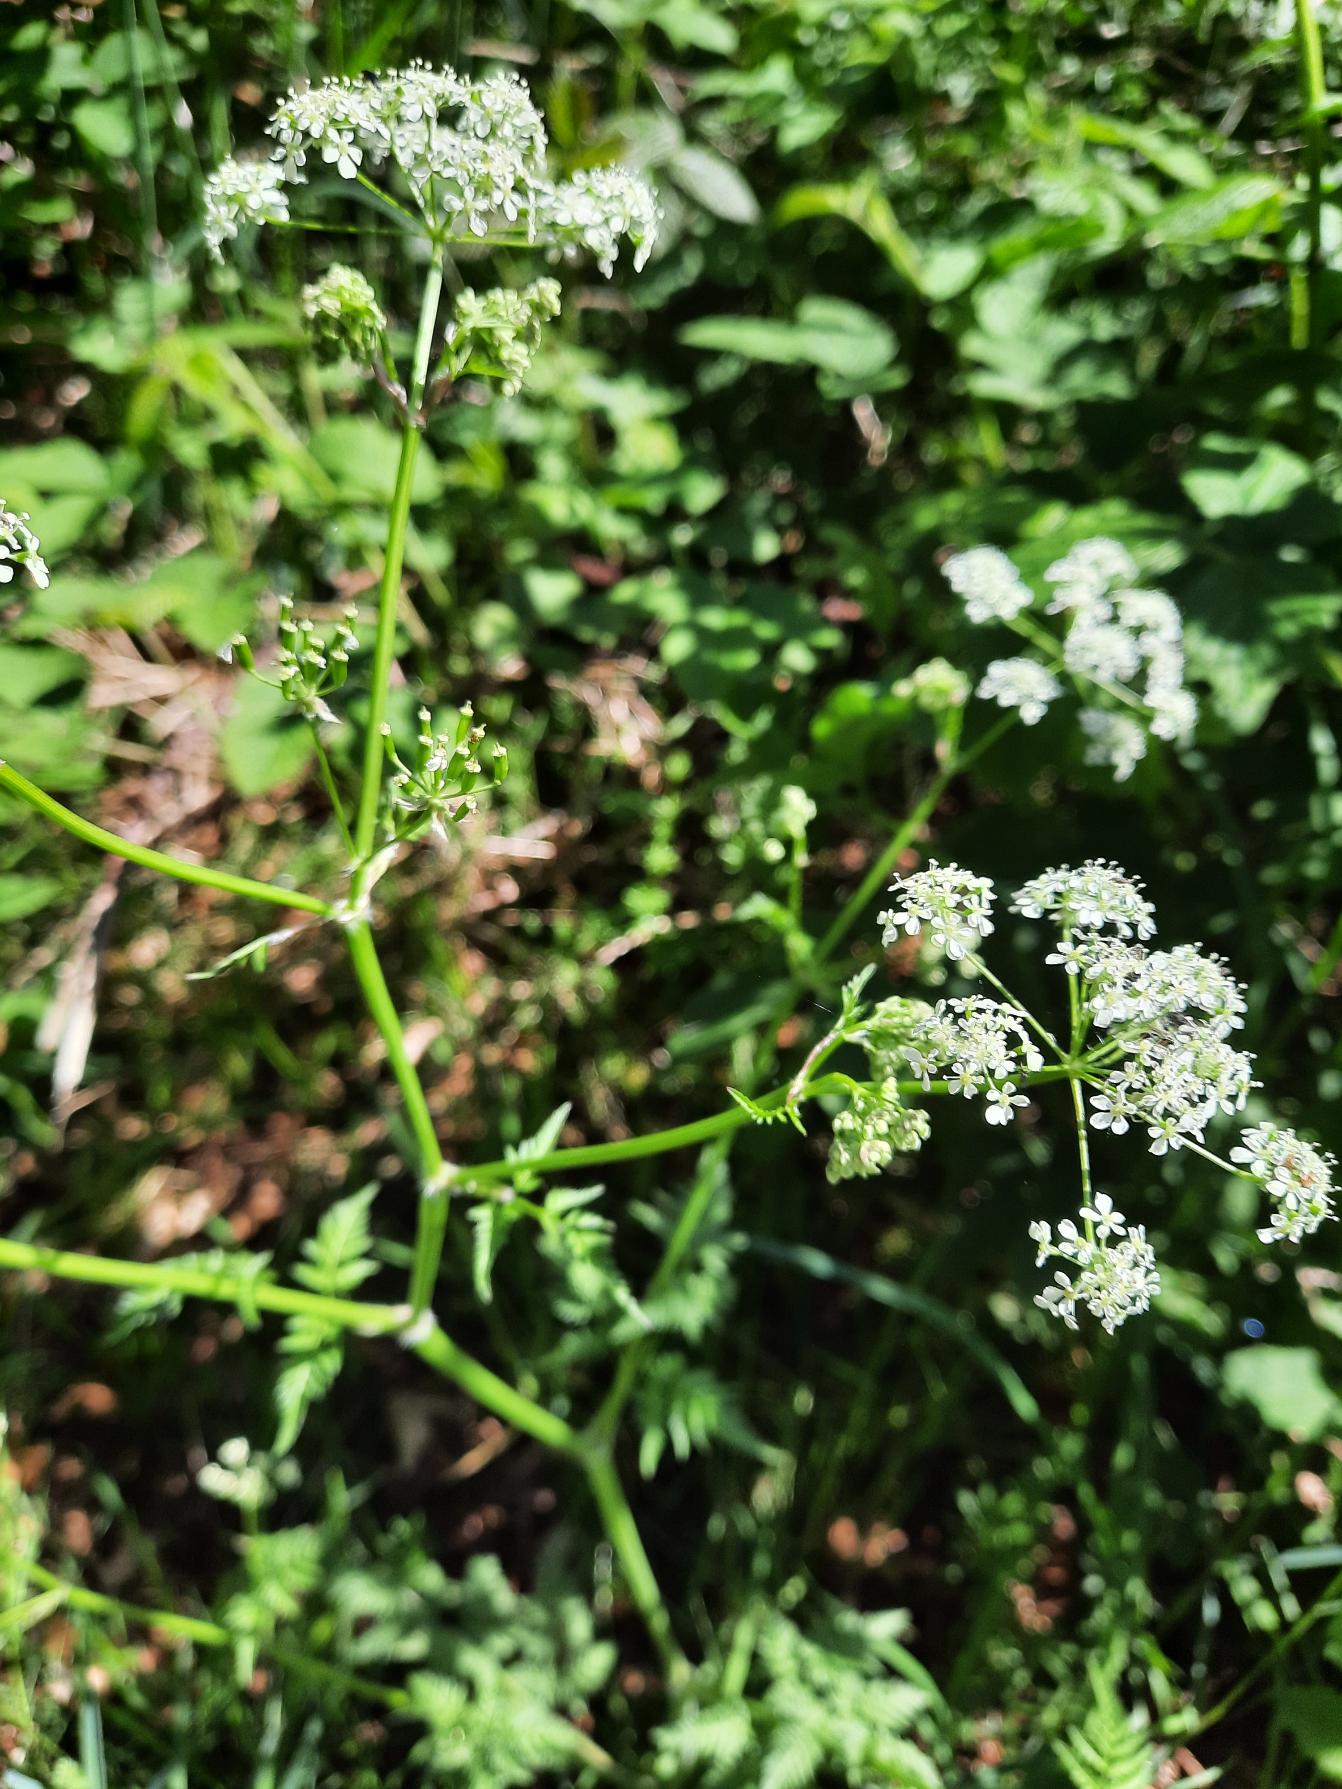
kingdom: Plantae
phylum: Tracheophyta
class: Magnoliopsida
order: Apiales
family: Apiaceae
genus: Anthriscus
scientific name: Anthriscus sylvestris
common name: Vild kørvel
